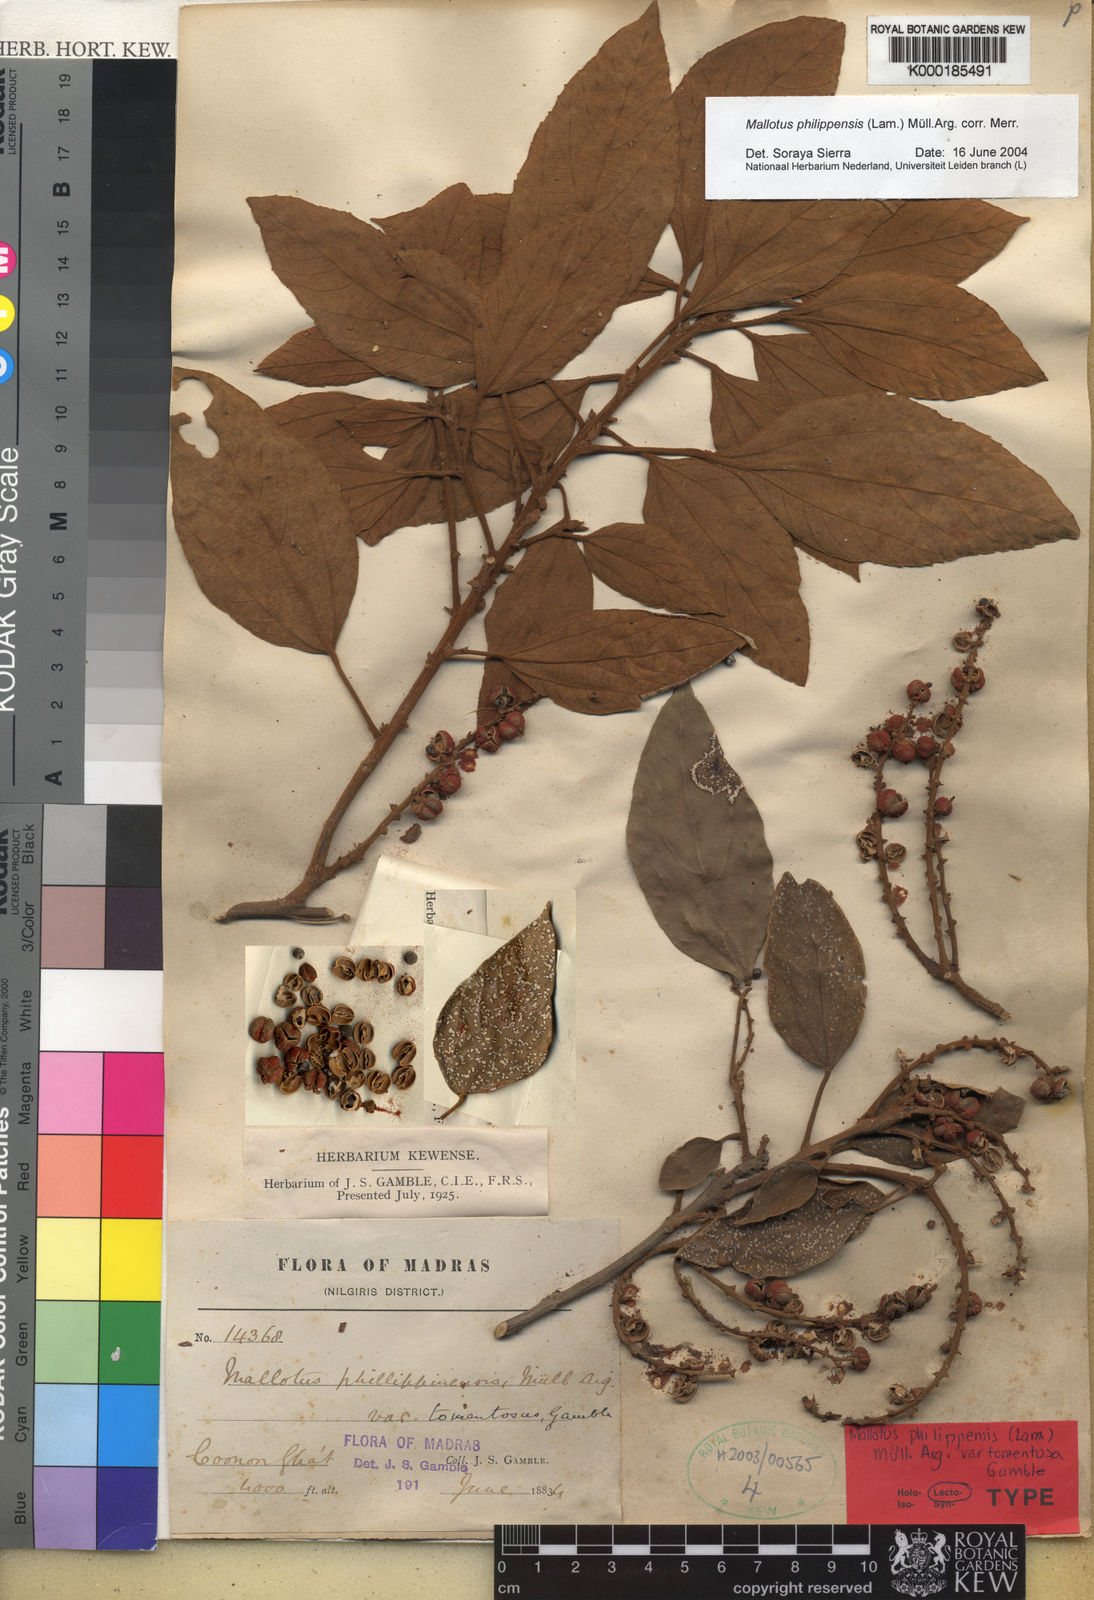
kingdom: Plantae
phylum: Tracheophyta
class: Magnoliopsida
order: Malpighiales
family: Euphorbiaceae
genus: Mallotus
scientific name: Mallotus
